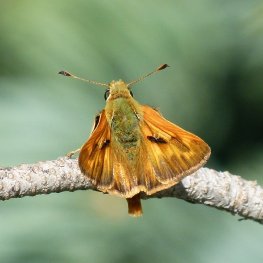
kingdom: Animalia
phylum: Arthropoda
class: Insecta
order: Lepidoptera
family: Hesperiidae
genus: Ochlodes
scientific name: Ochlodes sylvanoides
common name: Woodland Skipper
